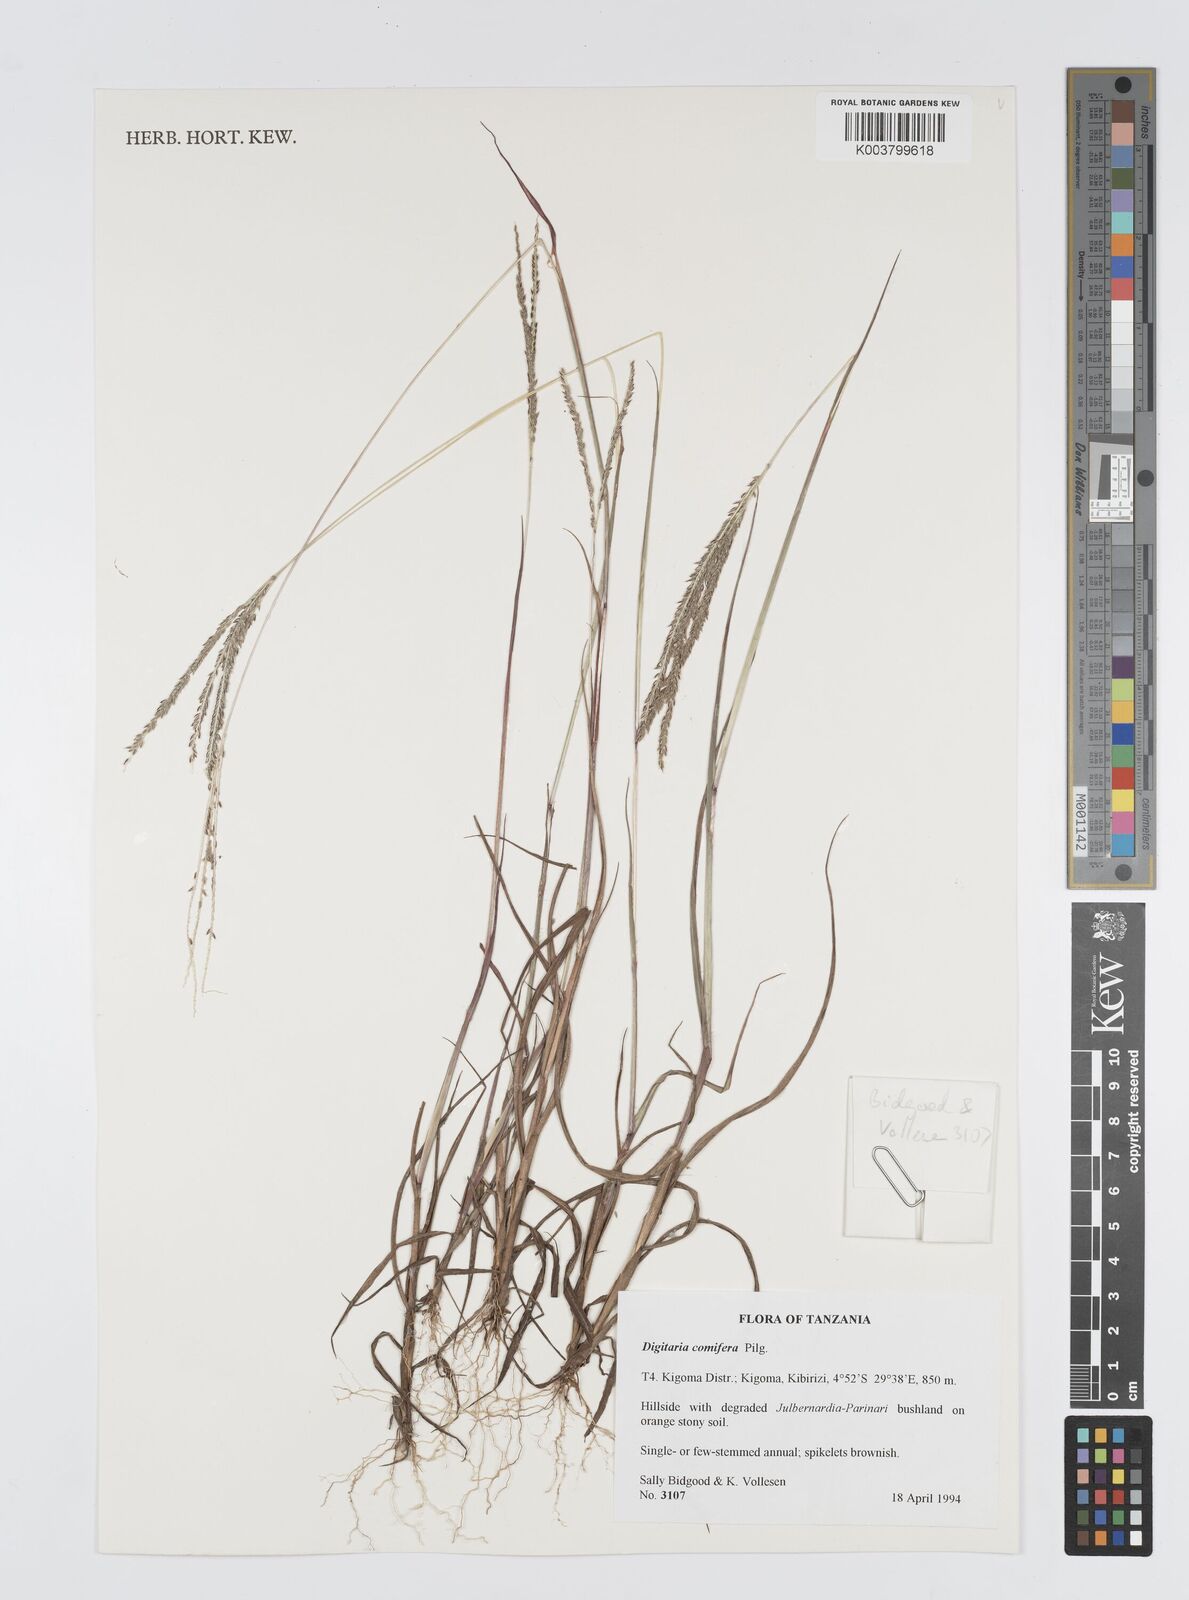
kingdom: Plantae
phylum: Tracheophyta
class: Liliopsida
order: Poales
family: Poaceae
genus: Digitaria
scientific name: Digitaria comifera
